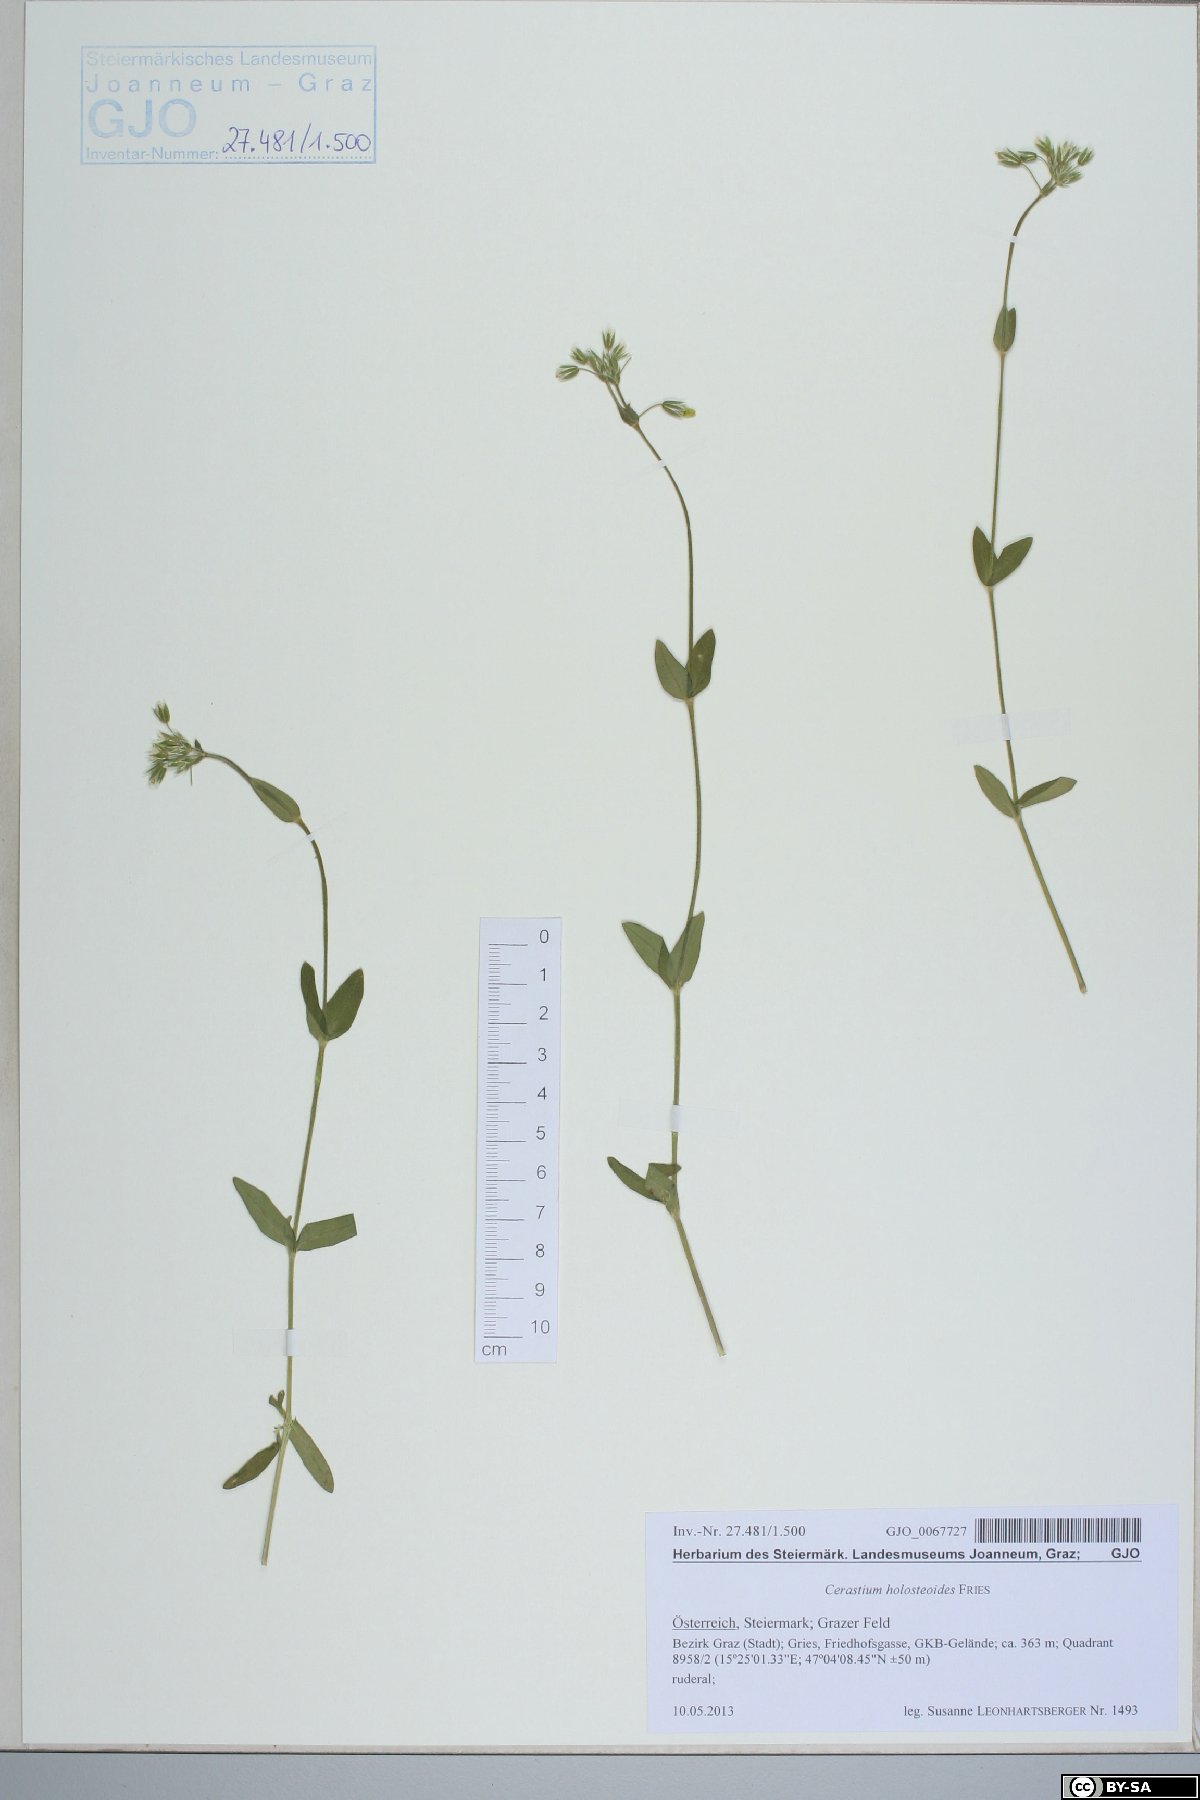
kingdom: Plantae
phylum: Tracheophyta
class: Magnoliopsida
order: Caryophyllales
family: Caryophyllaceae
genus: Cerastium
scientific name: Cerastium holosteoides
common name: Big chickweed
